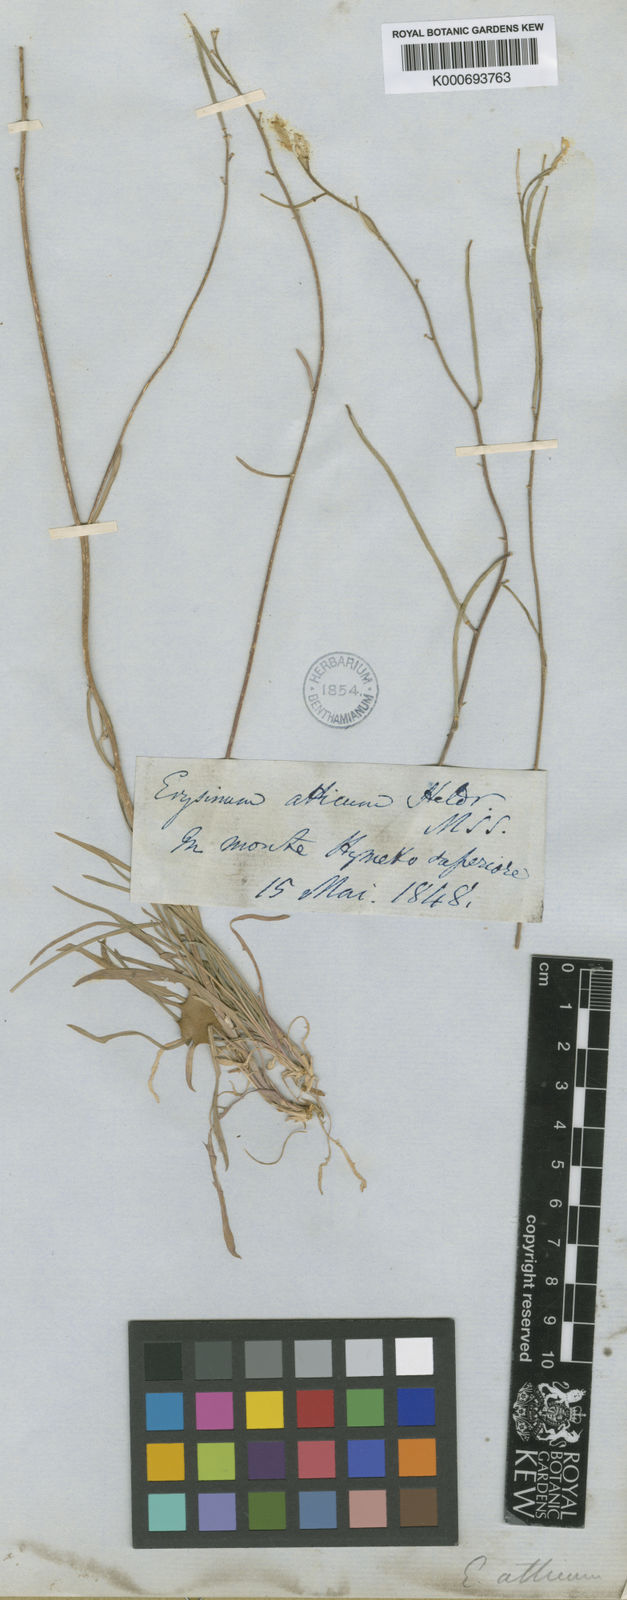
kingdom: Plantae
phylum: Tracheophyta
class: Magnoliopsida
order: Brassicales
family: Brassicaceae
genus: Erysimum
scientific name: Erysimum
